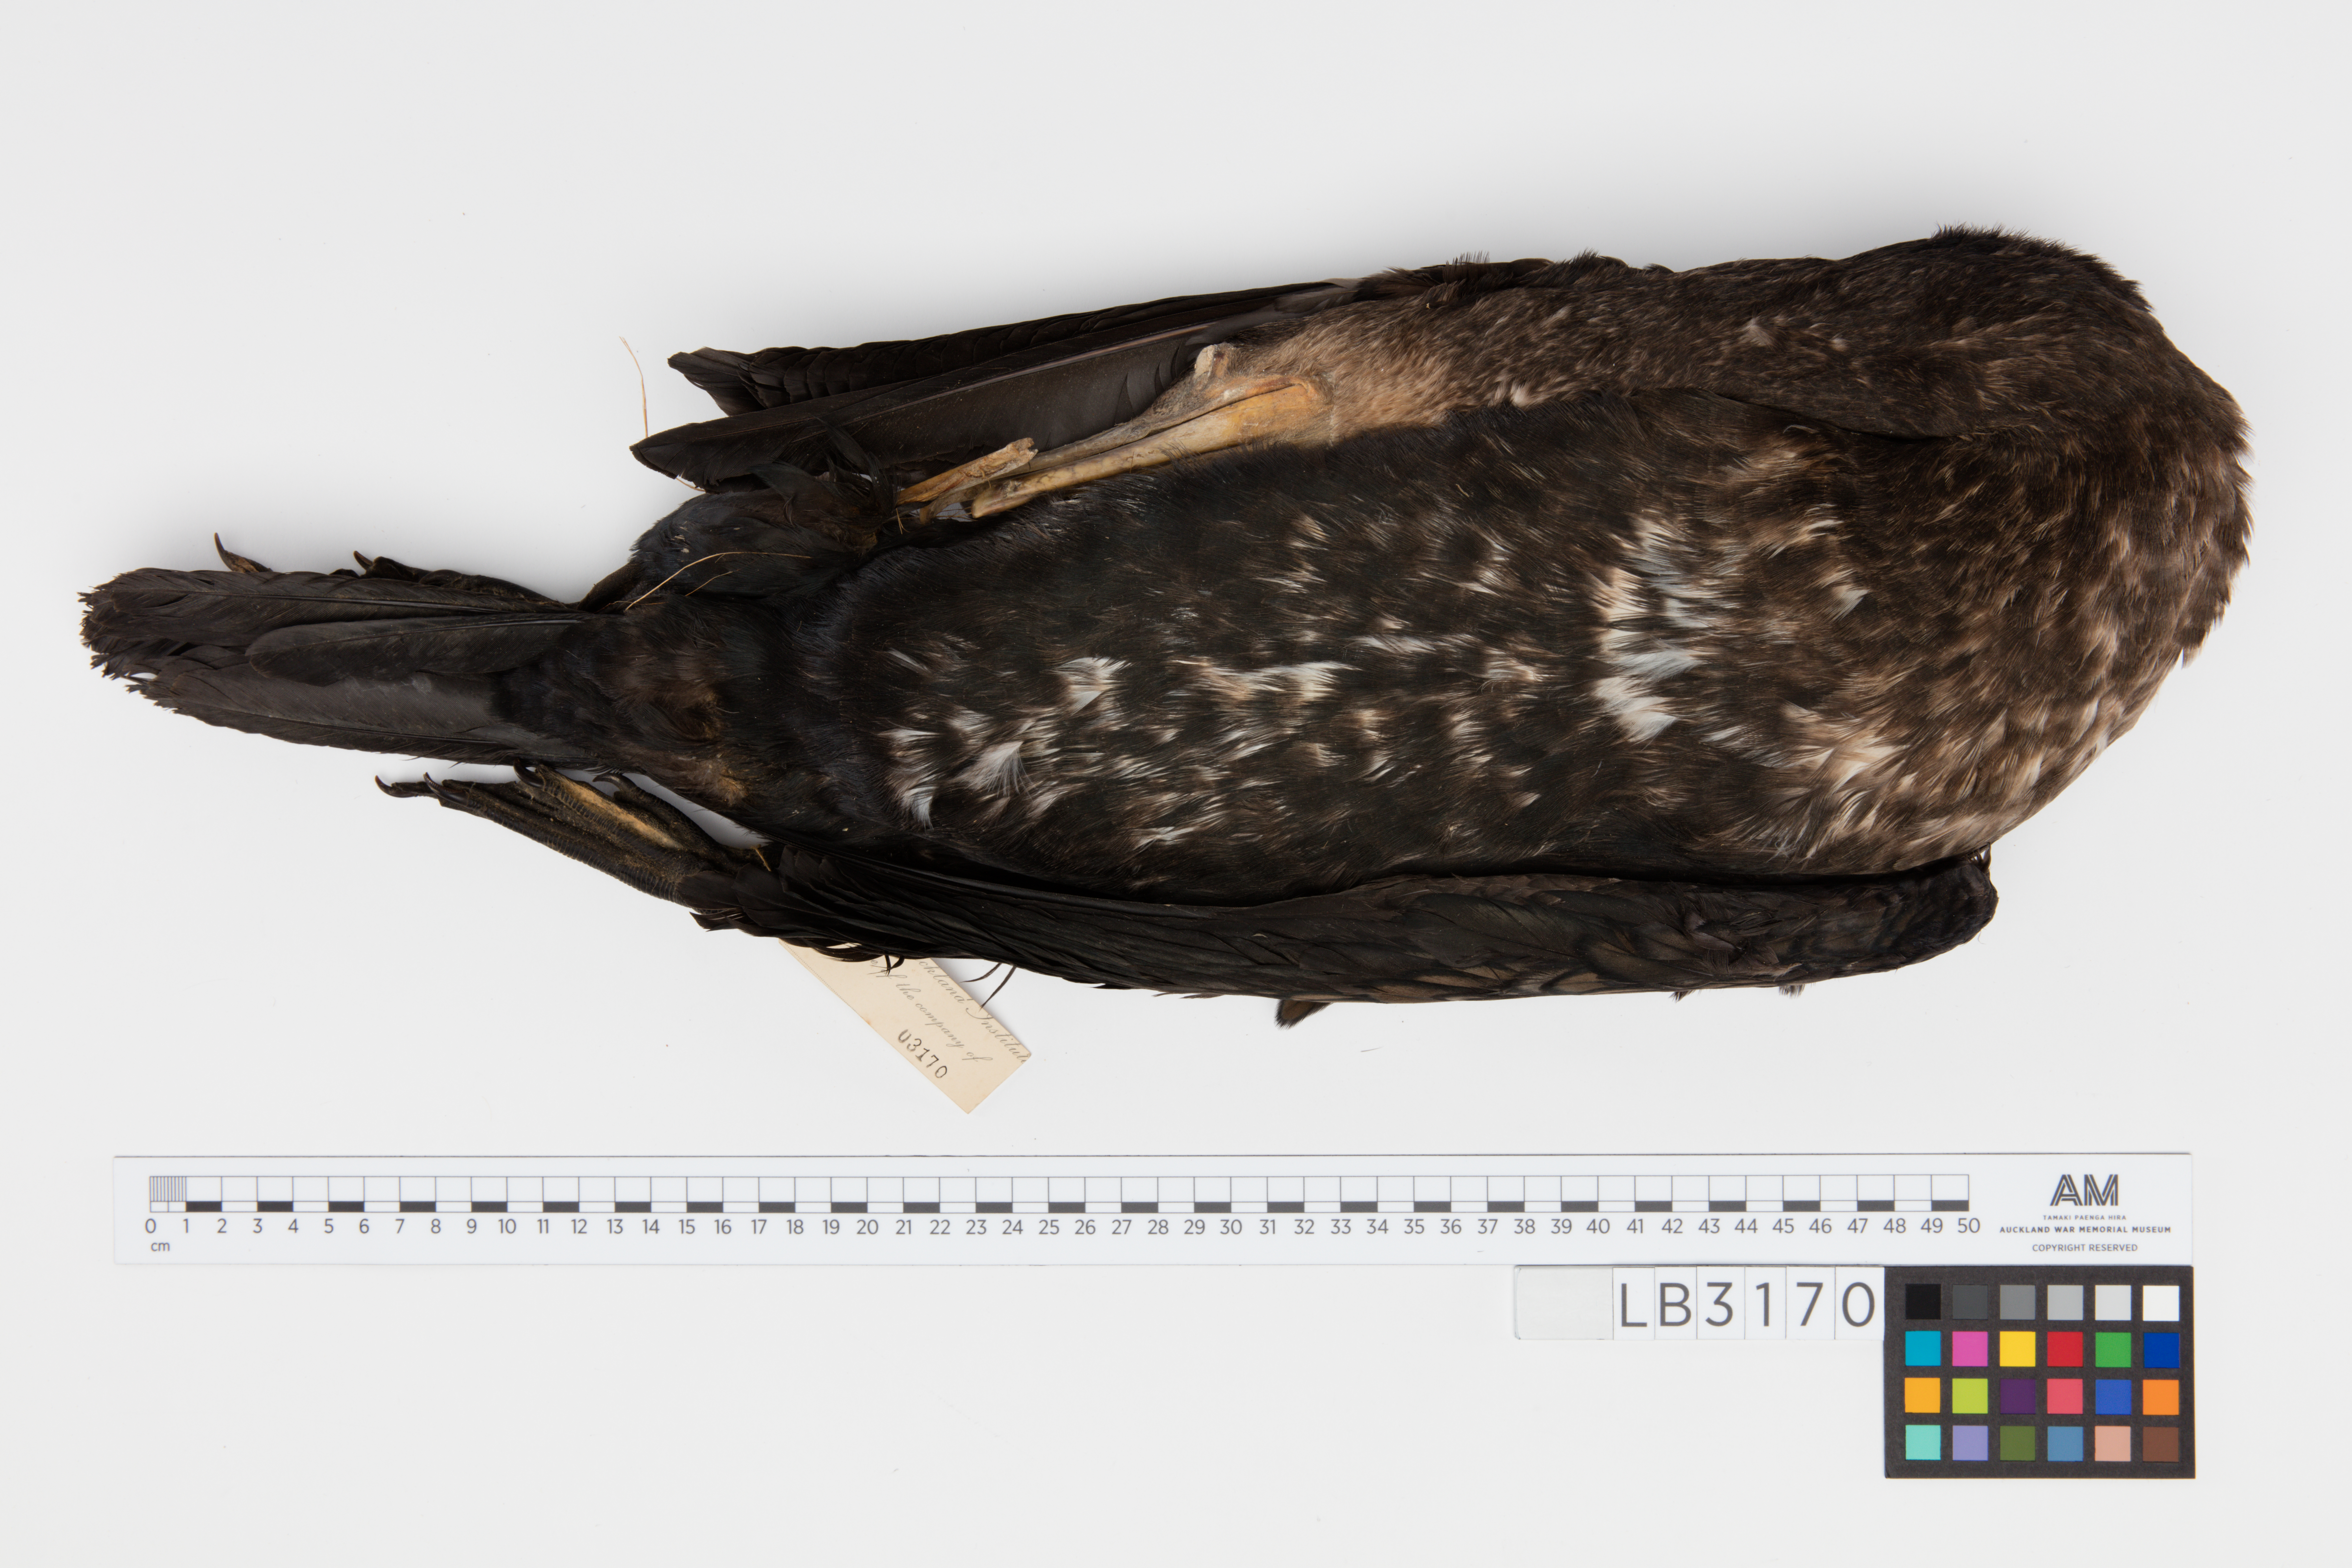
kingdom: Animalia
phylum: Chordata
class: Aves
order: Suliformes
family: Phalacrocoracidae
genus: Phalacrocorax
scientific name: Phalacrocorax carbo
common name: Great cormorant
